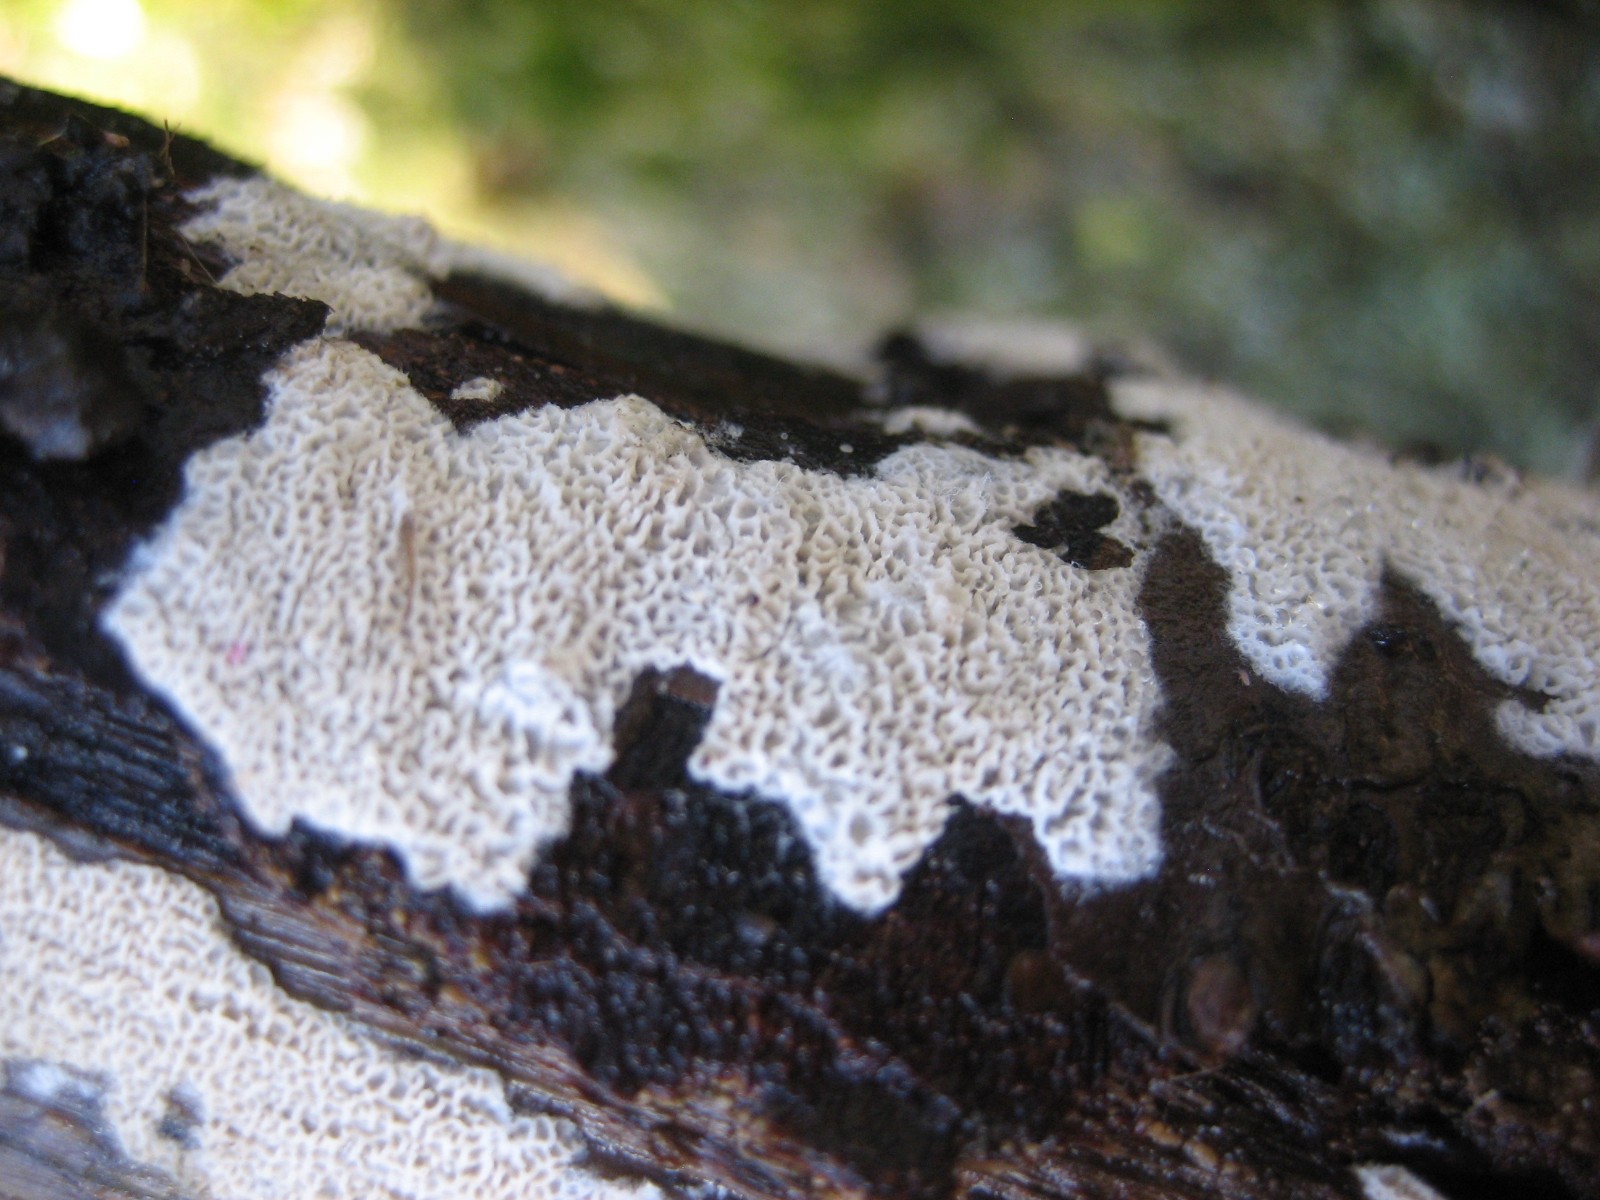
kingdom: Fungi
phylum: Basidiomycota
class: Agaricomycetes
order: Polyporales
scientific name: Polyporales
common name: poresvampordenen
